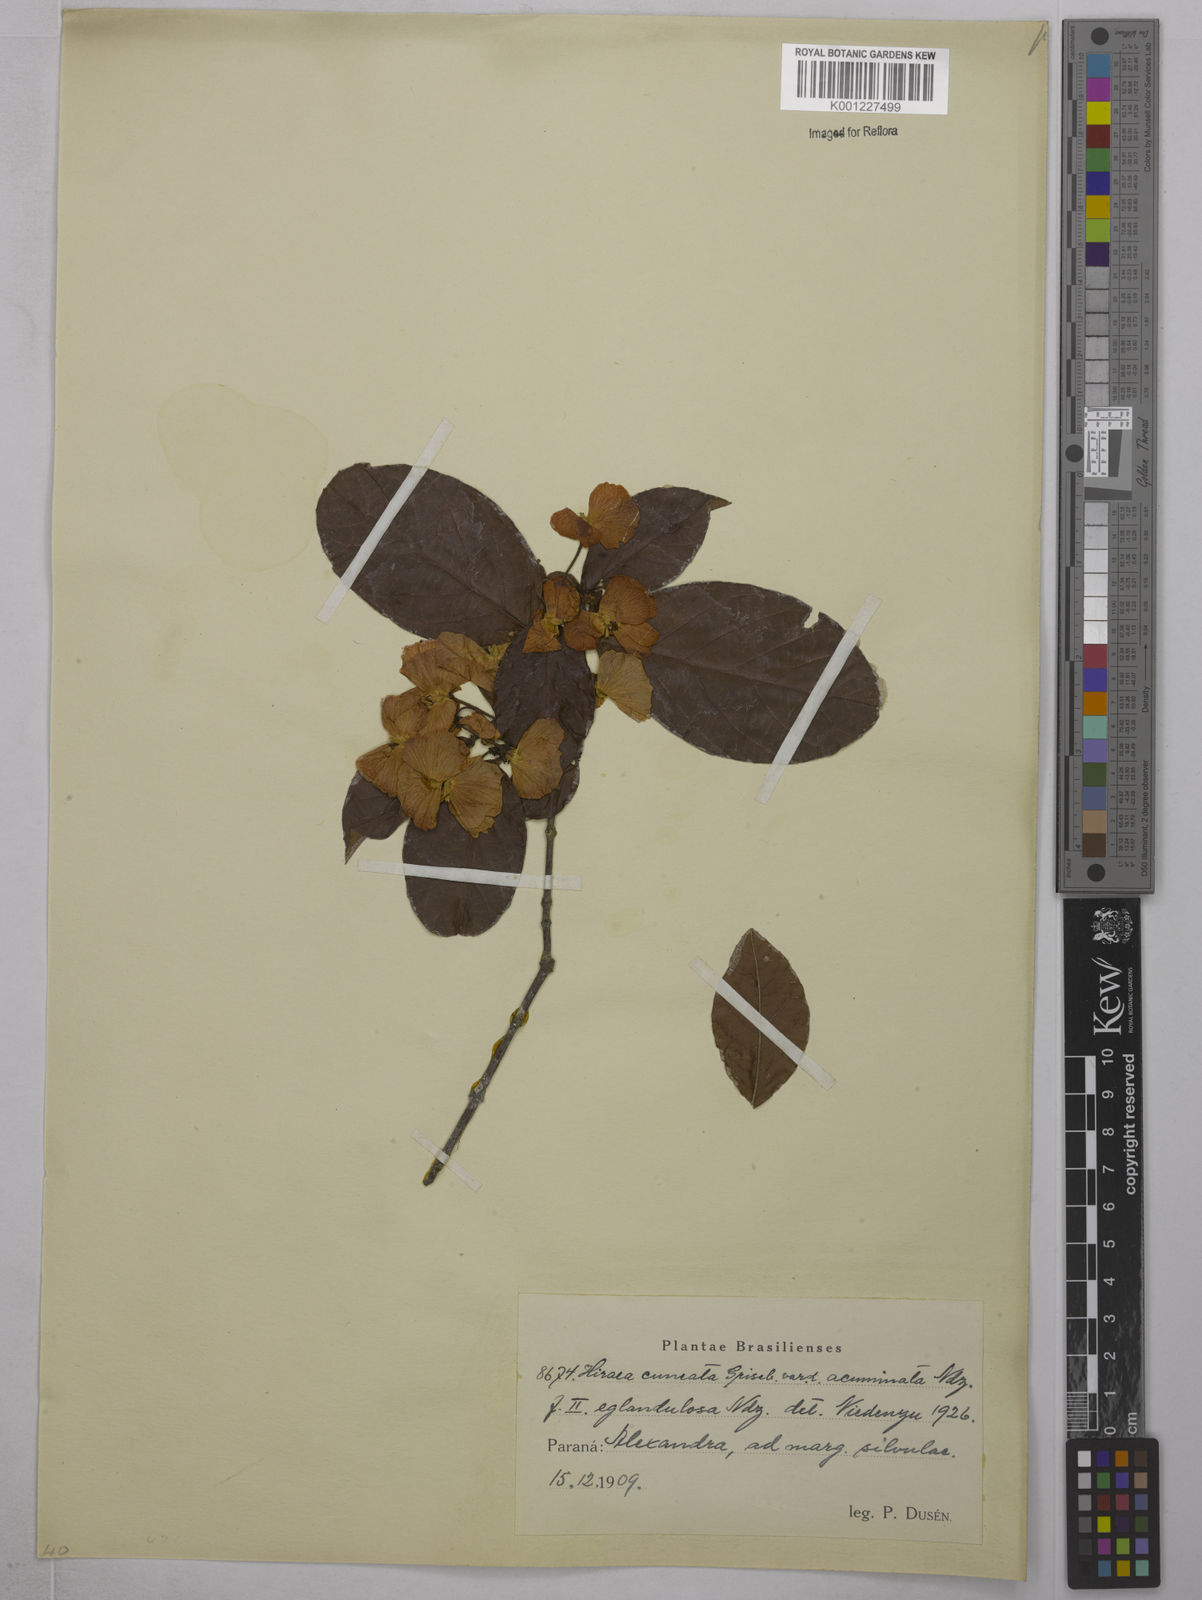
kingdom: Plantae
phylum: Tracheophyta
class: Magnoliopsida
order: Malpighiales
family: Malpighiaceae
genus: Hiraea
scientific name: Hiraea cuneata
